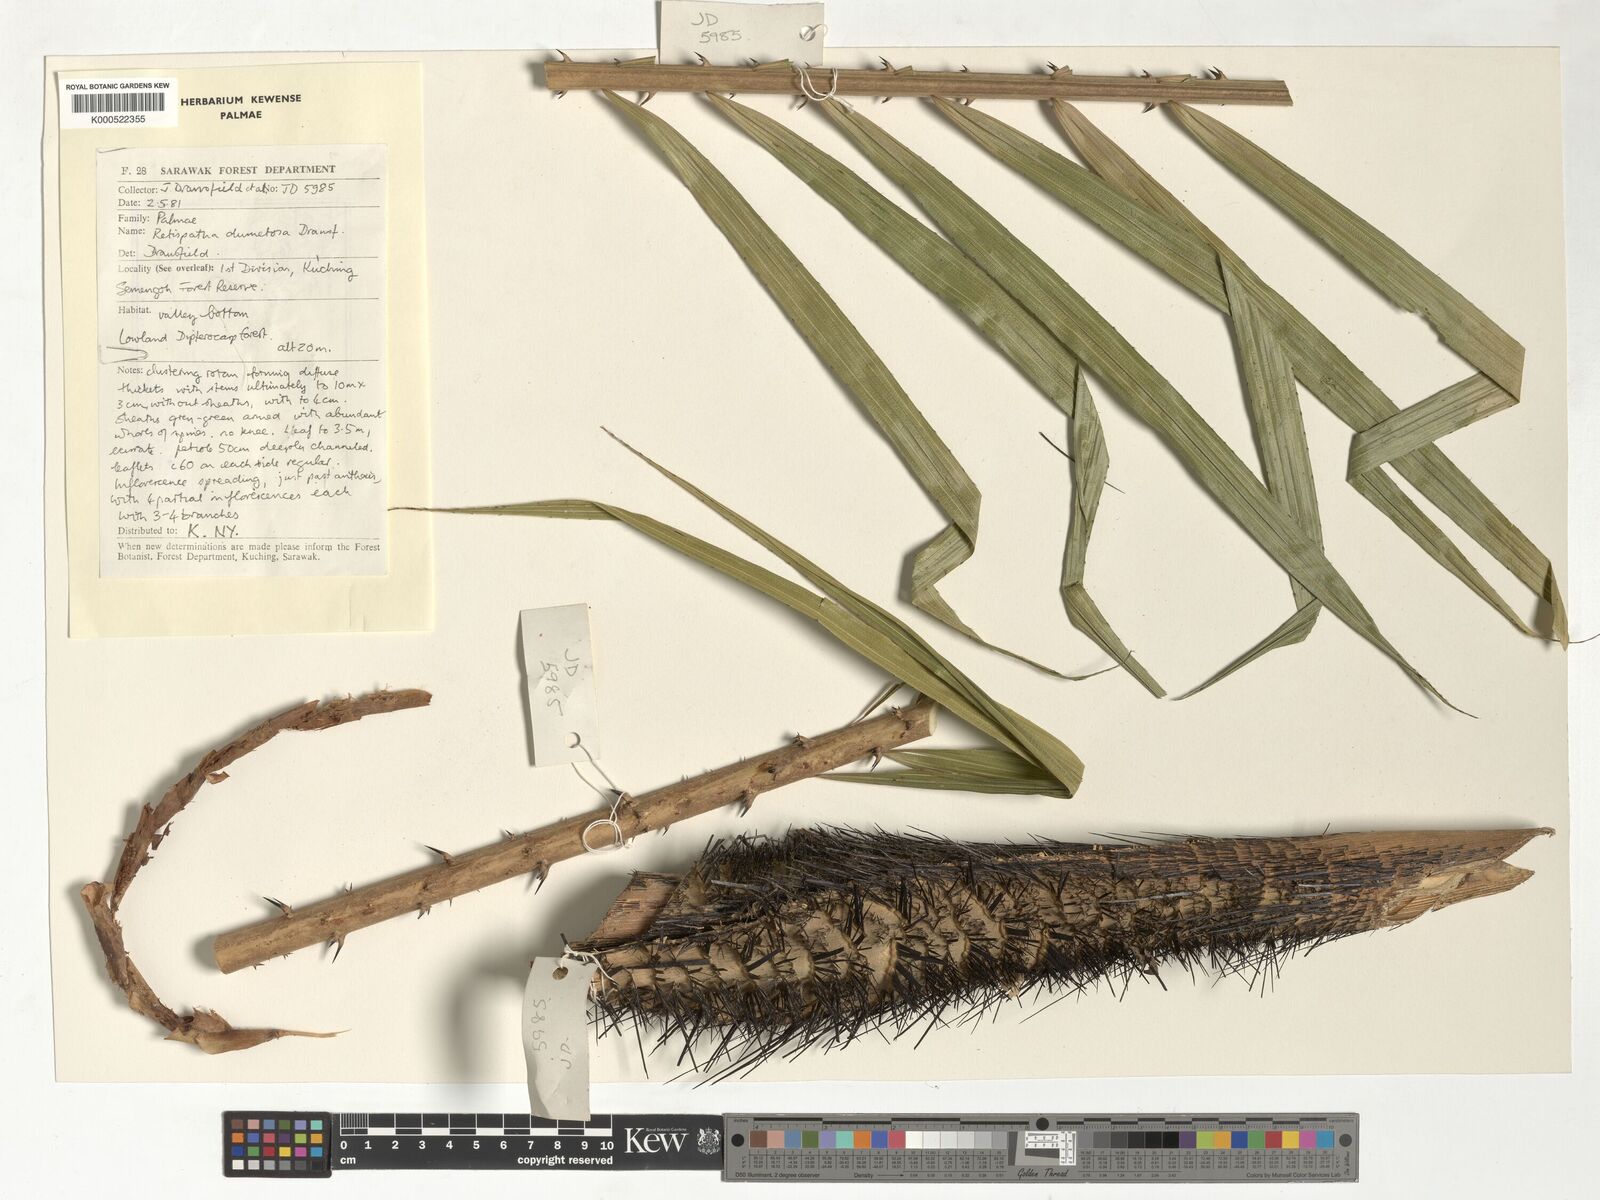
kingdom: Plantae
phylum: Tracheophyta
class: Liliopsida
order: Arecales
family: Arecaceae
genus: Calamus
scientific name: Calamus dumetosus
